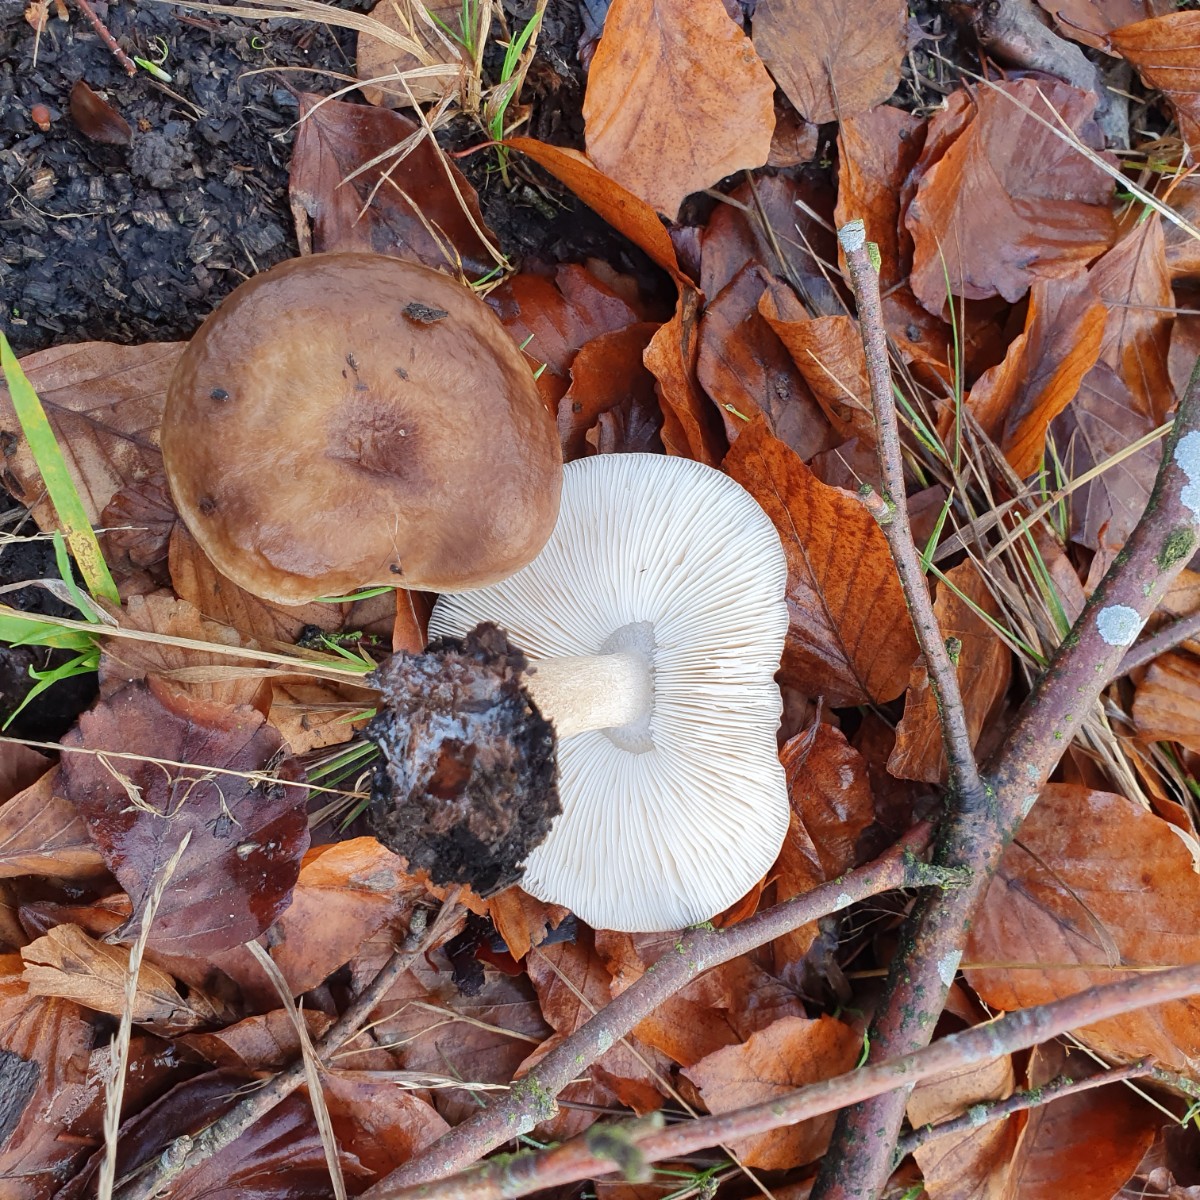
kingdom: Fungi
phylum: Basidiomycota
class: Agaricomycetes
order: Agaricales
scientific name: Agaricales
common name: champignonordenen
